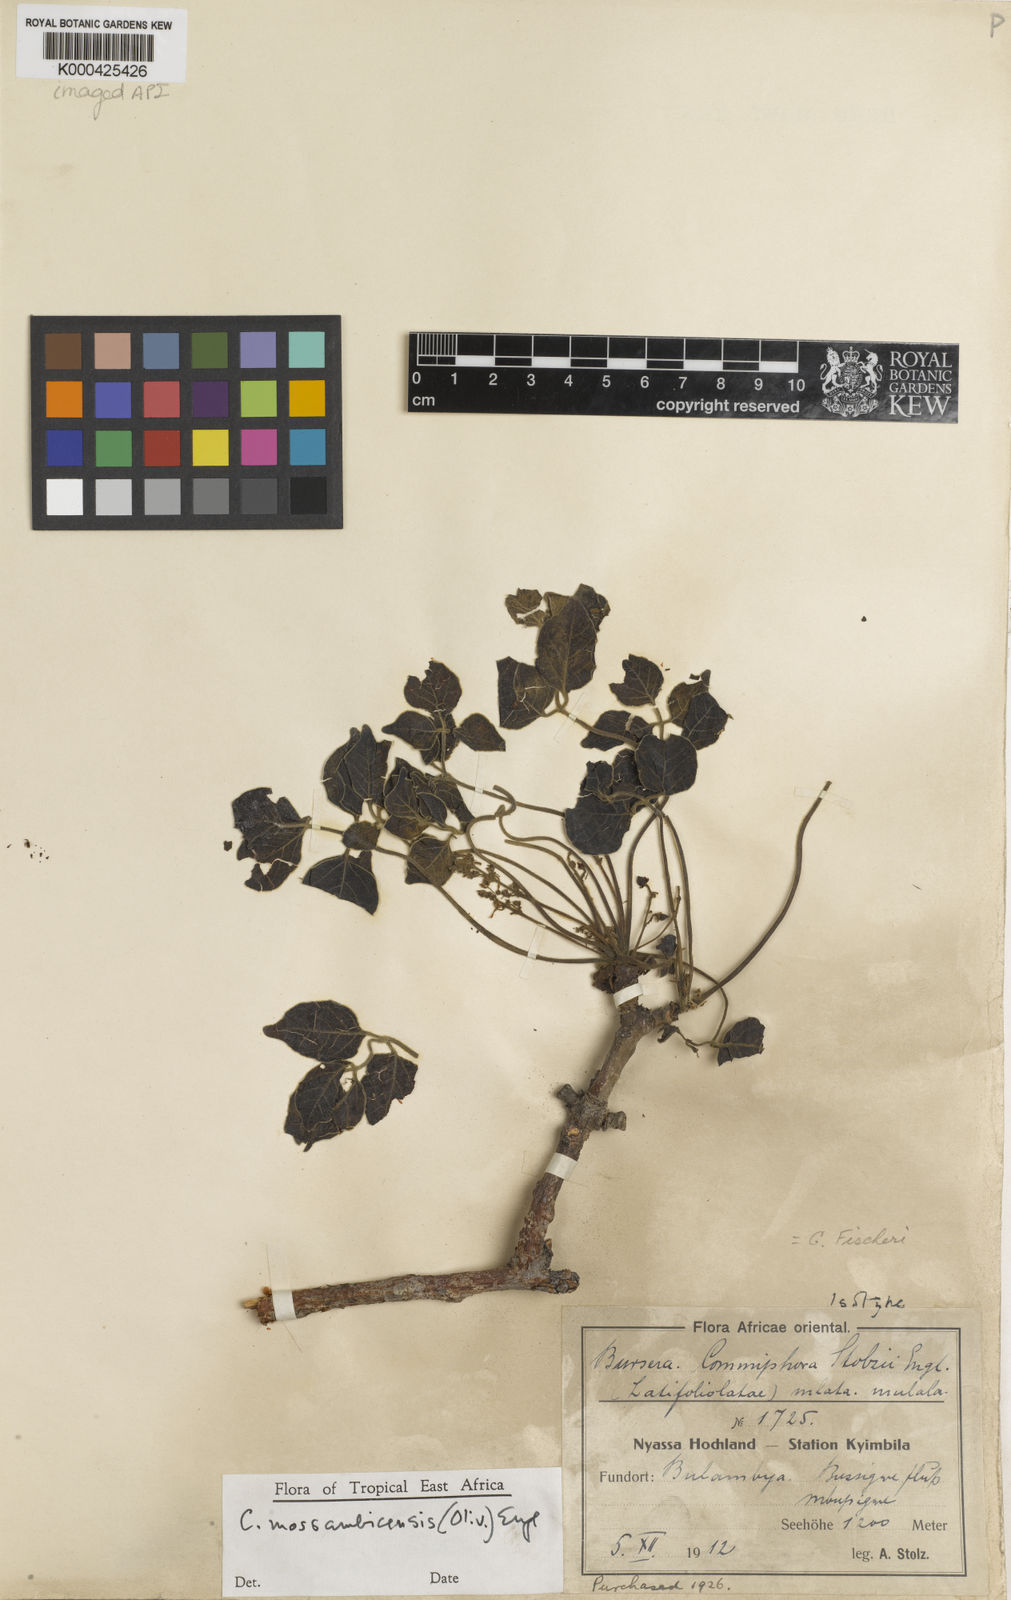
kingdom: Plantae
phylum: Tracheophyta
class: Magnoliopsida
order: Sapindales
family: Burseraceae
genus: Commiphora
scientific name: Commiphora mossambicensis
